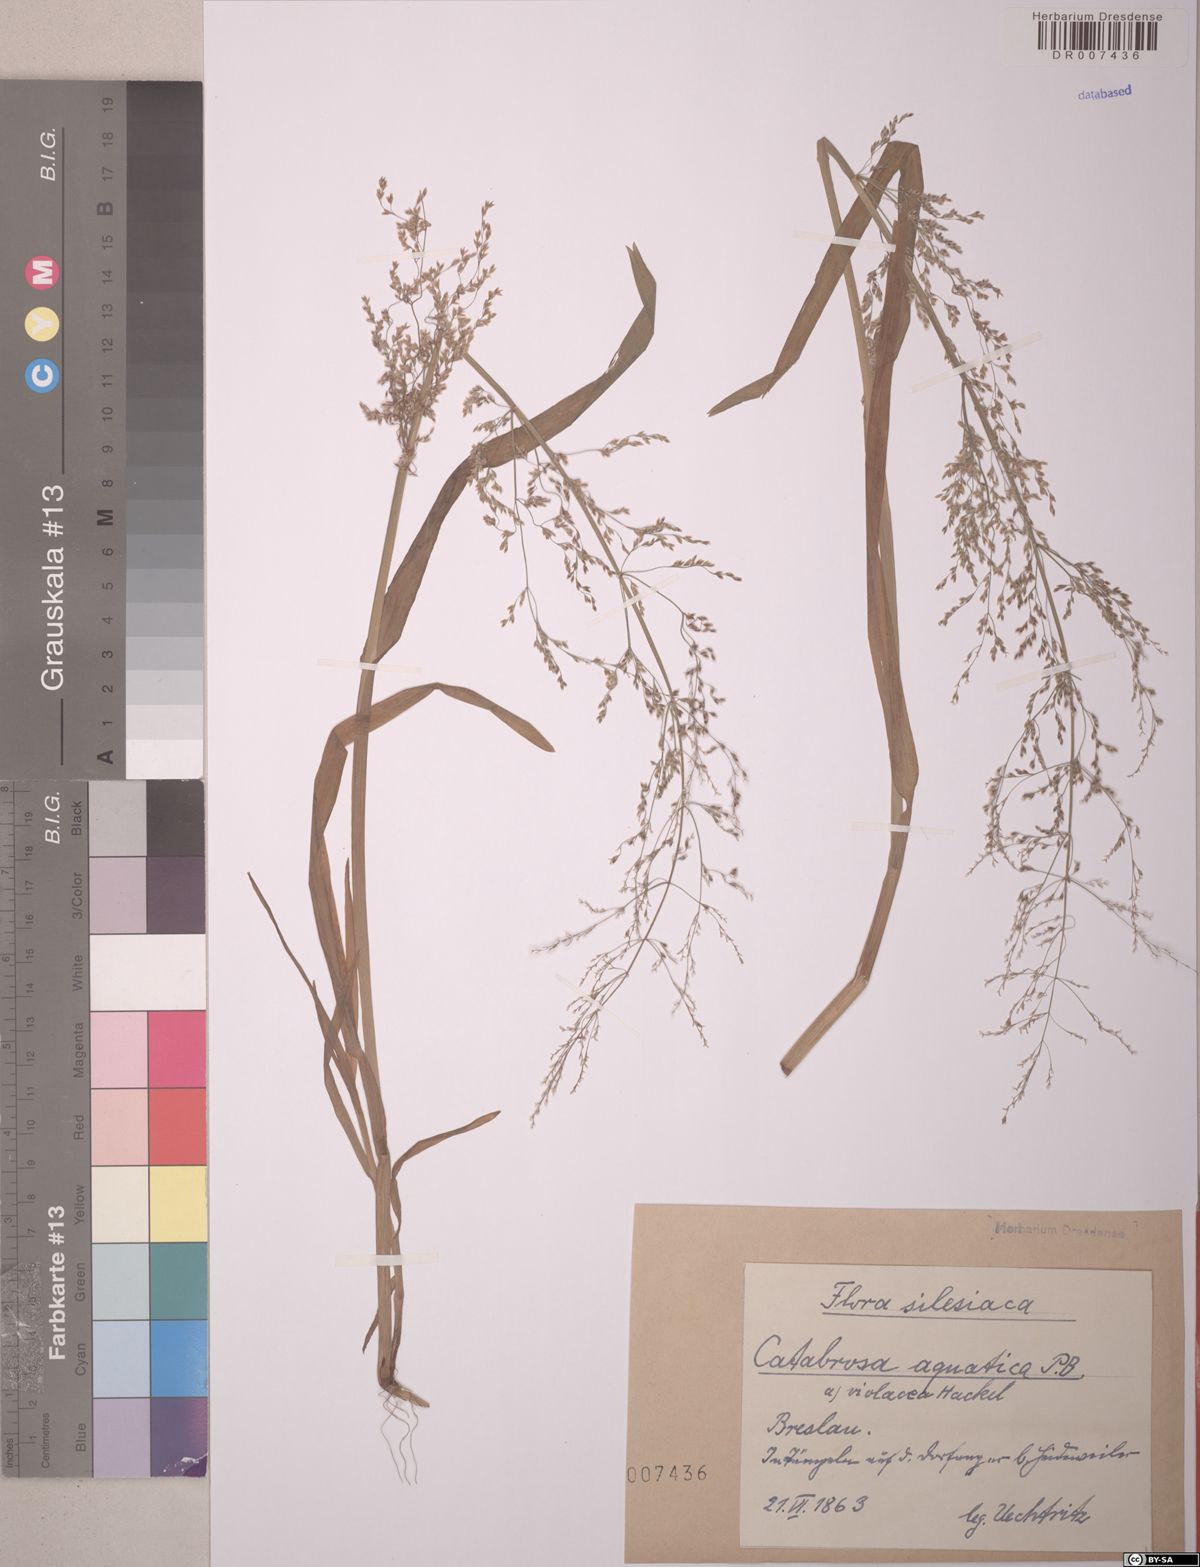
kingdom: Plantae
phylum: Tracheophyta
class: Liliopsida
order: Poales
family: Poaceae
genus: Catabrosa
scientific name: Catabrosa aquatica
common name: Whorl-grass
